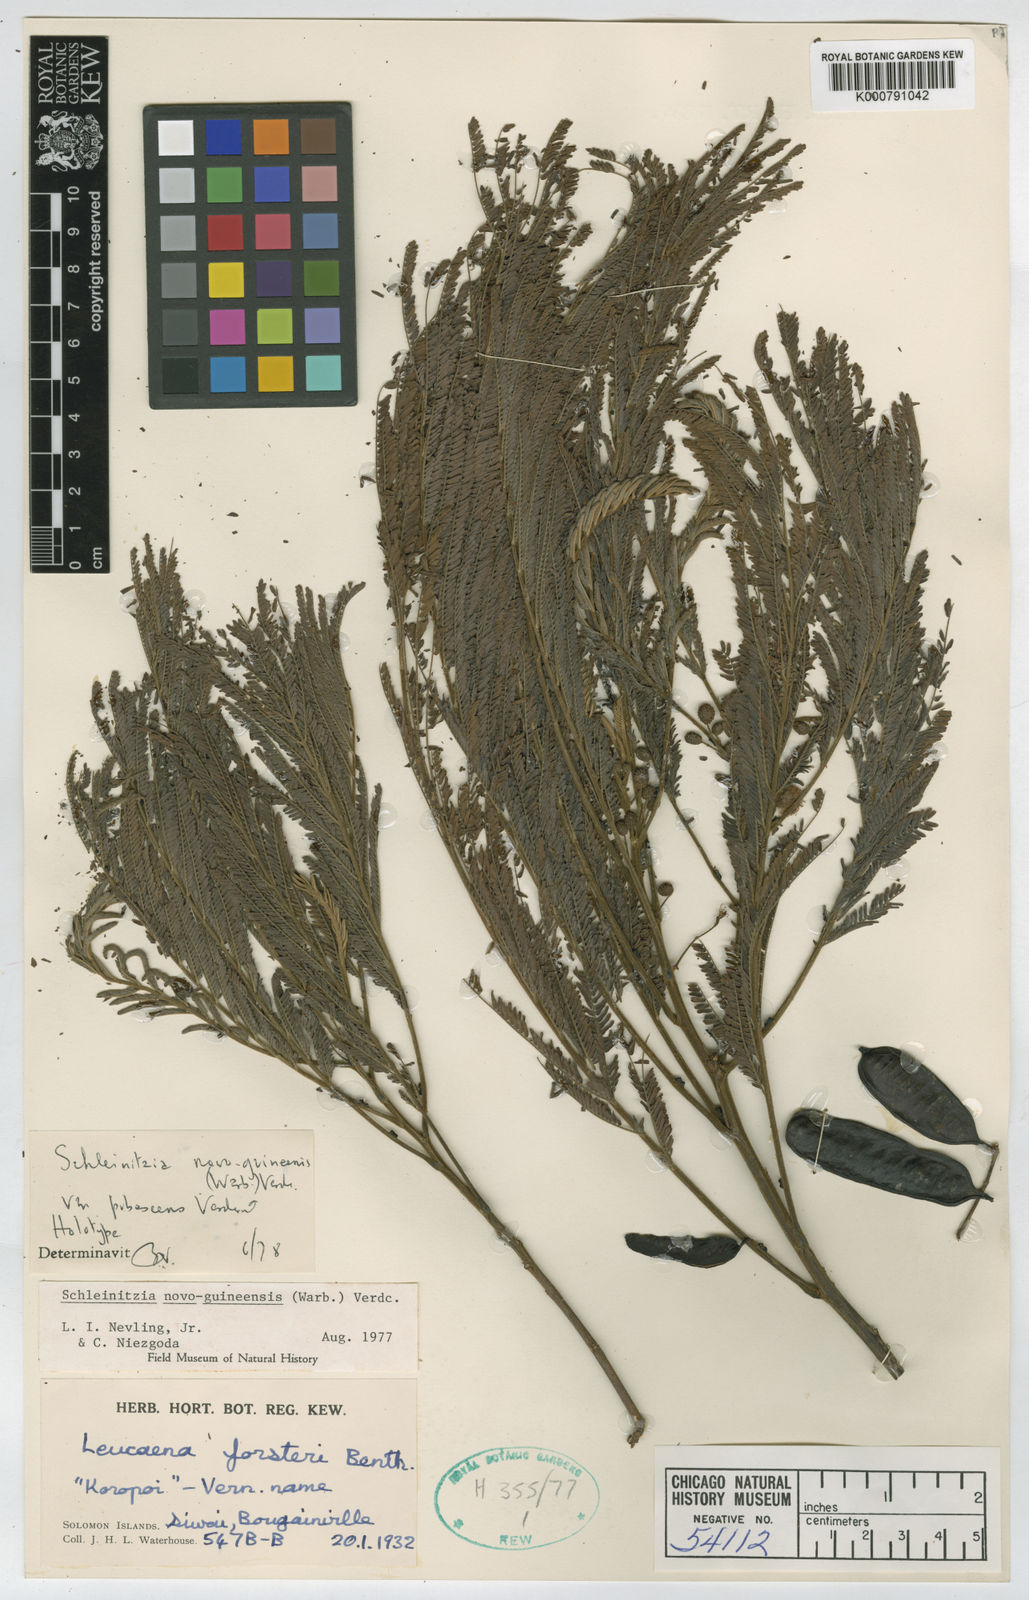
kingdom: Plantae
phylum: Tracheophyta
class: Magnoliopsida
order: Fabales
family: Fabaceae
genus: Schleinitzia
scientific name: Schleinitzia novoguineensis
